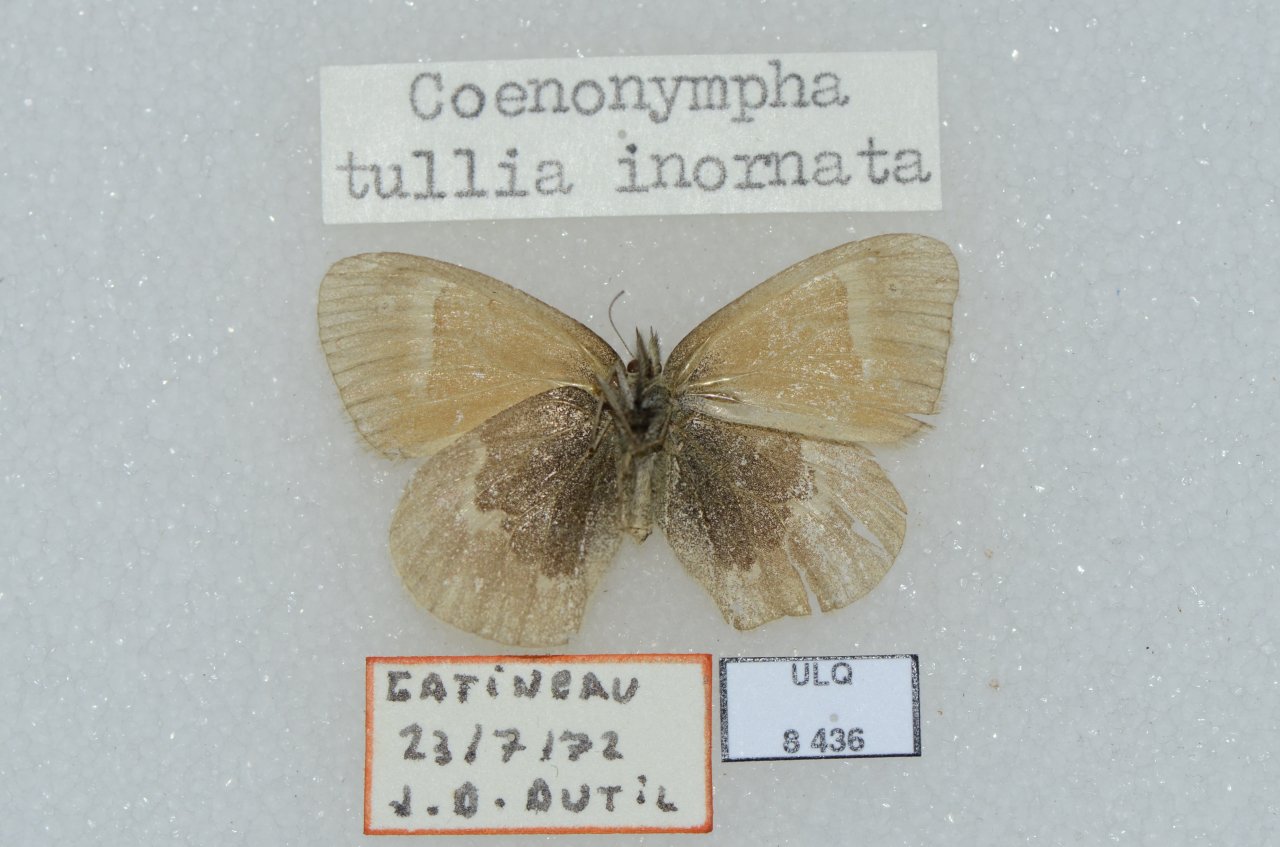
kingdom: Animalia
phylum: Arthropoda
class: Insecta
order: Lepidoptera
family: Nymphalidae
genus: Coenonympha
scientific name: Coenonympha tullia
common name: Large Heath
